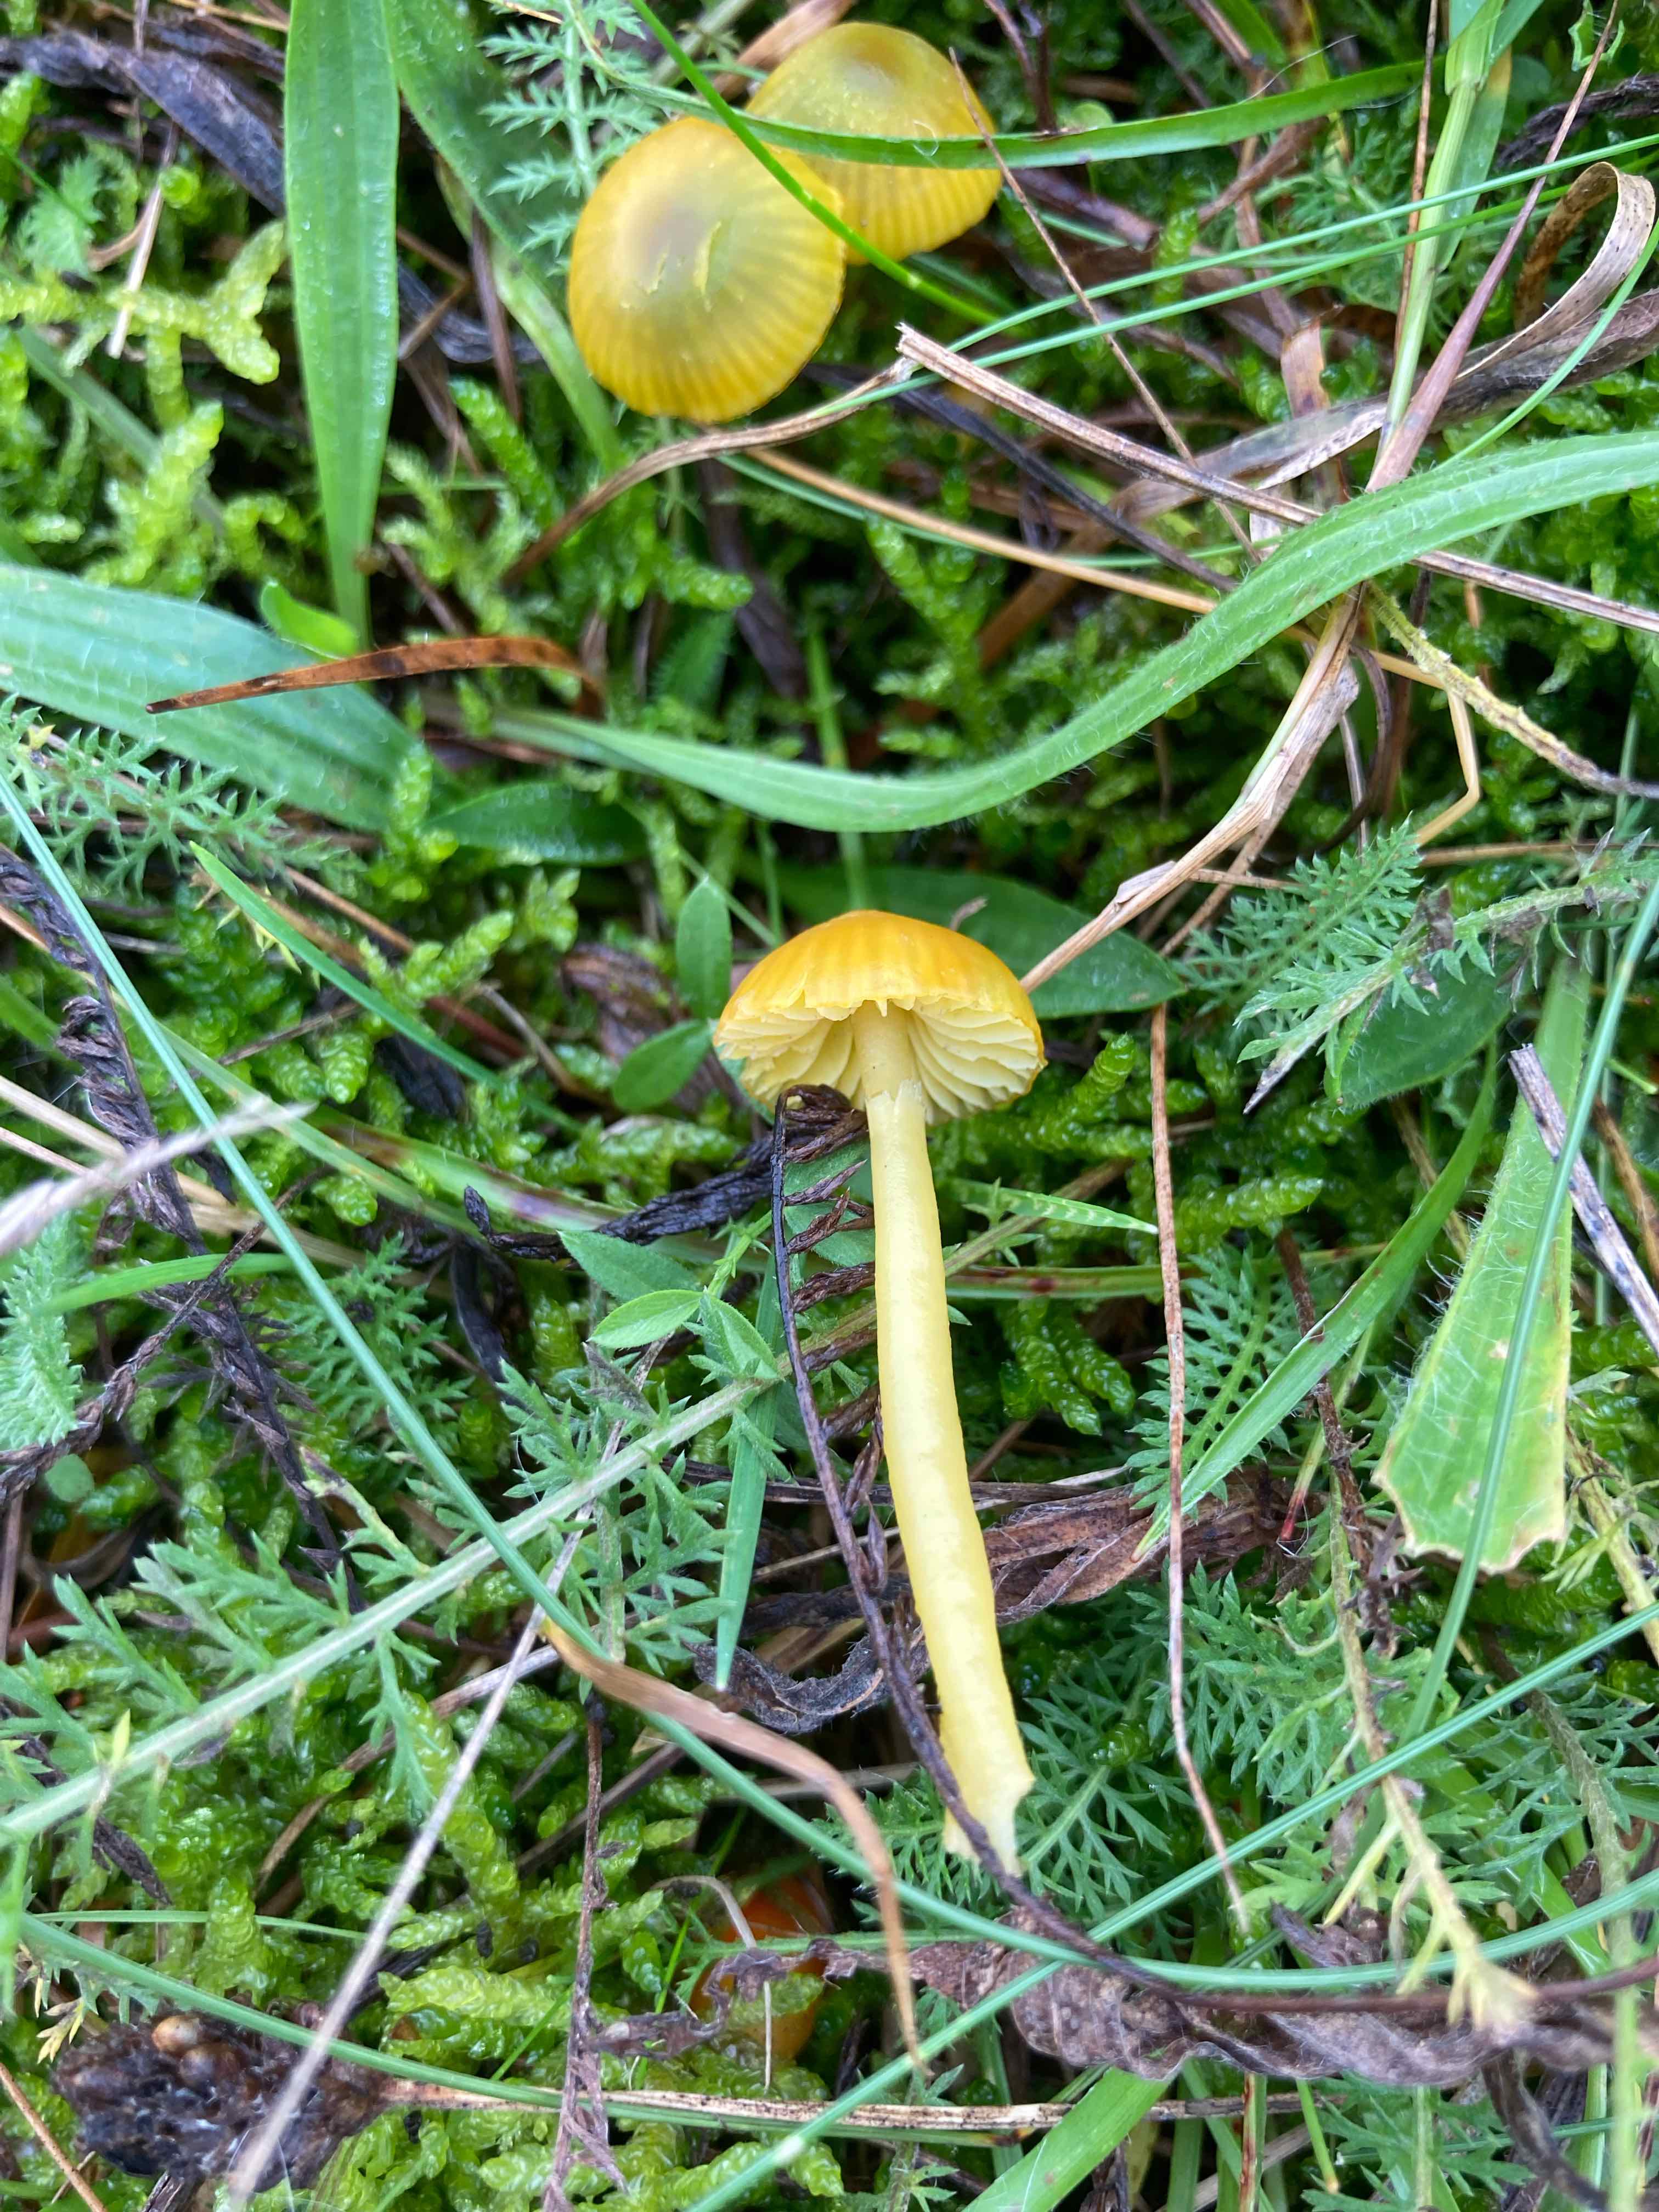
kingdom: Fungi
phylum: Basidiomycota
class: Agaricomycetes
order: Agaricales
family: Hygrophoraceae
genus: Gliophorus
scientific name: Gliophorus psittacinus
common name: papegøje-vokshat
